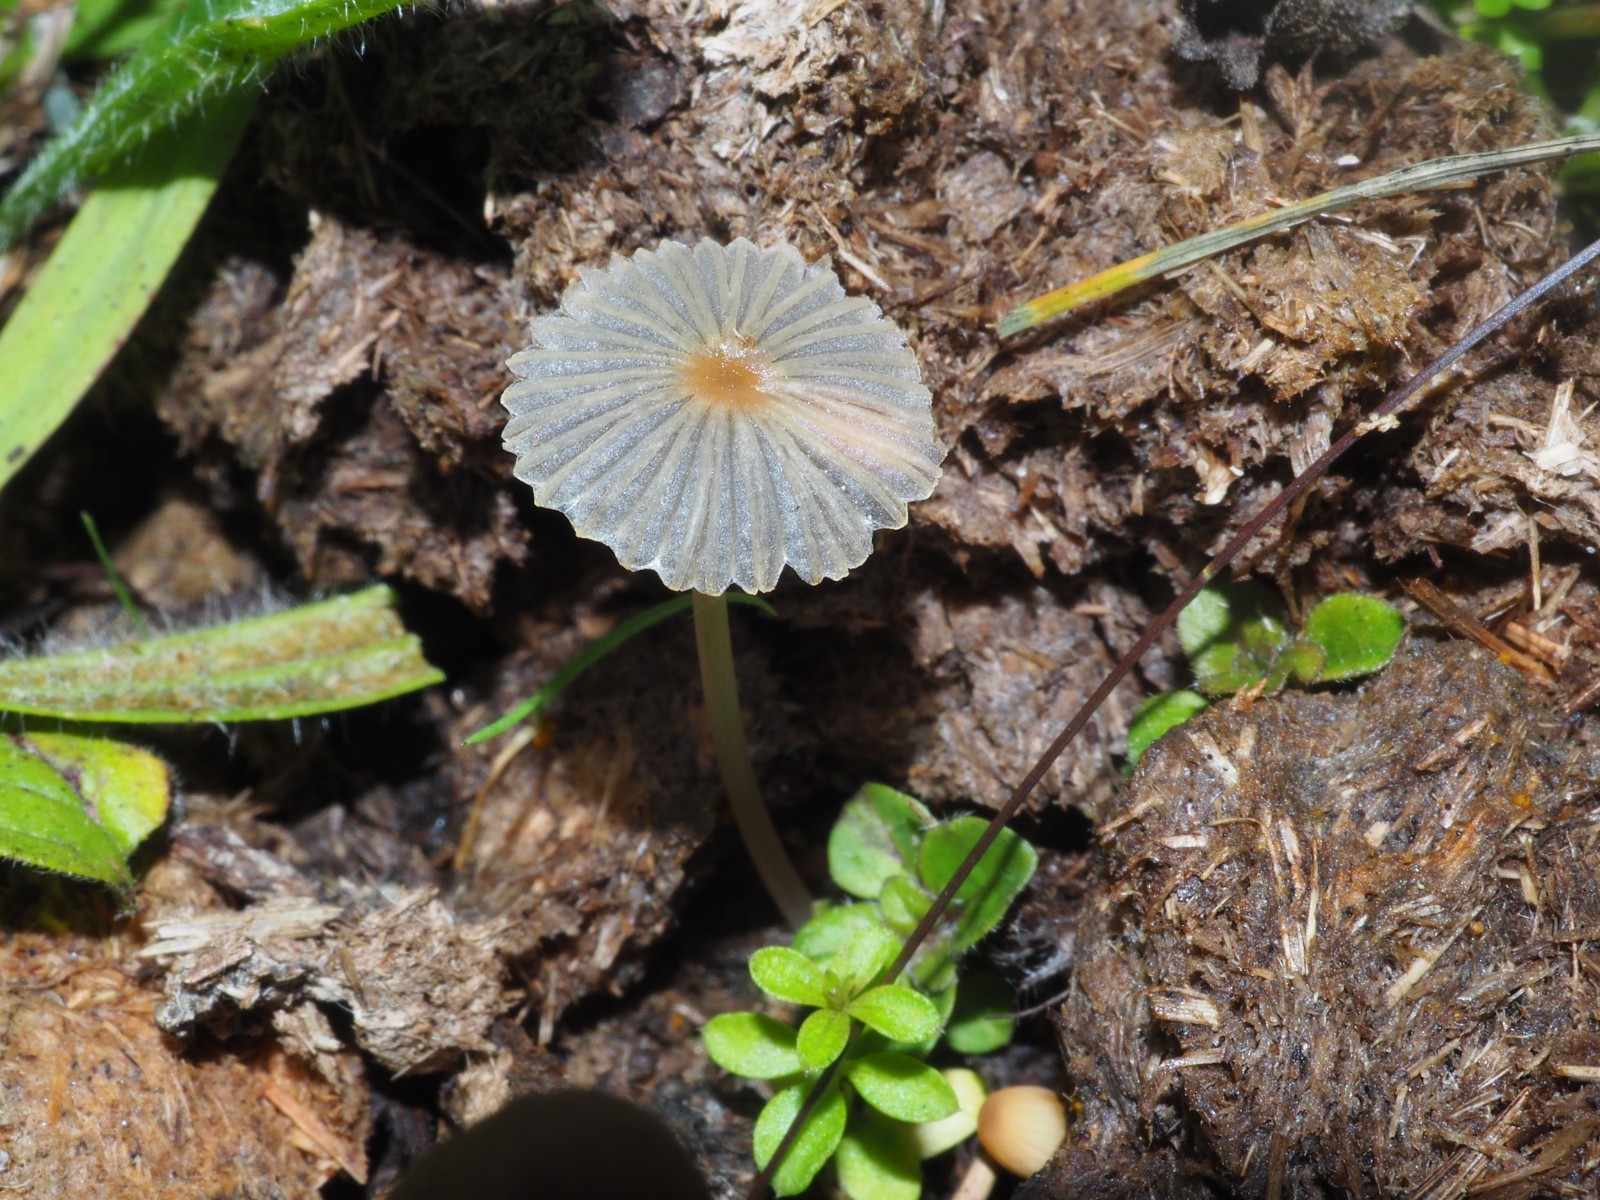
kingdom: Fungi
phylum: Basidiomycota
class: Agaricomycetes
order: Agaricales
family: Psathyrellaceae
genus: Parasola
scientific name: Parasola schroeteri
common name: bredsporet hjulhat
